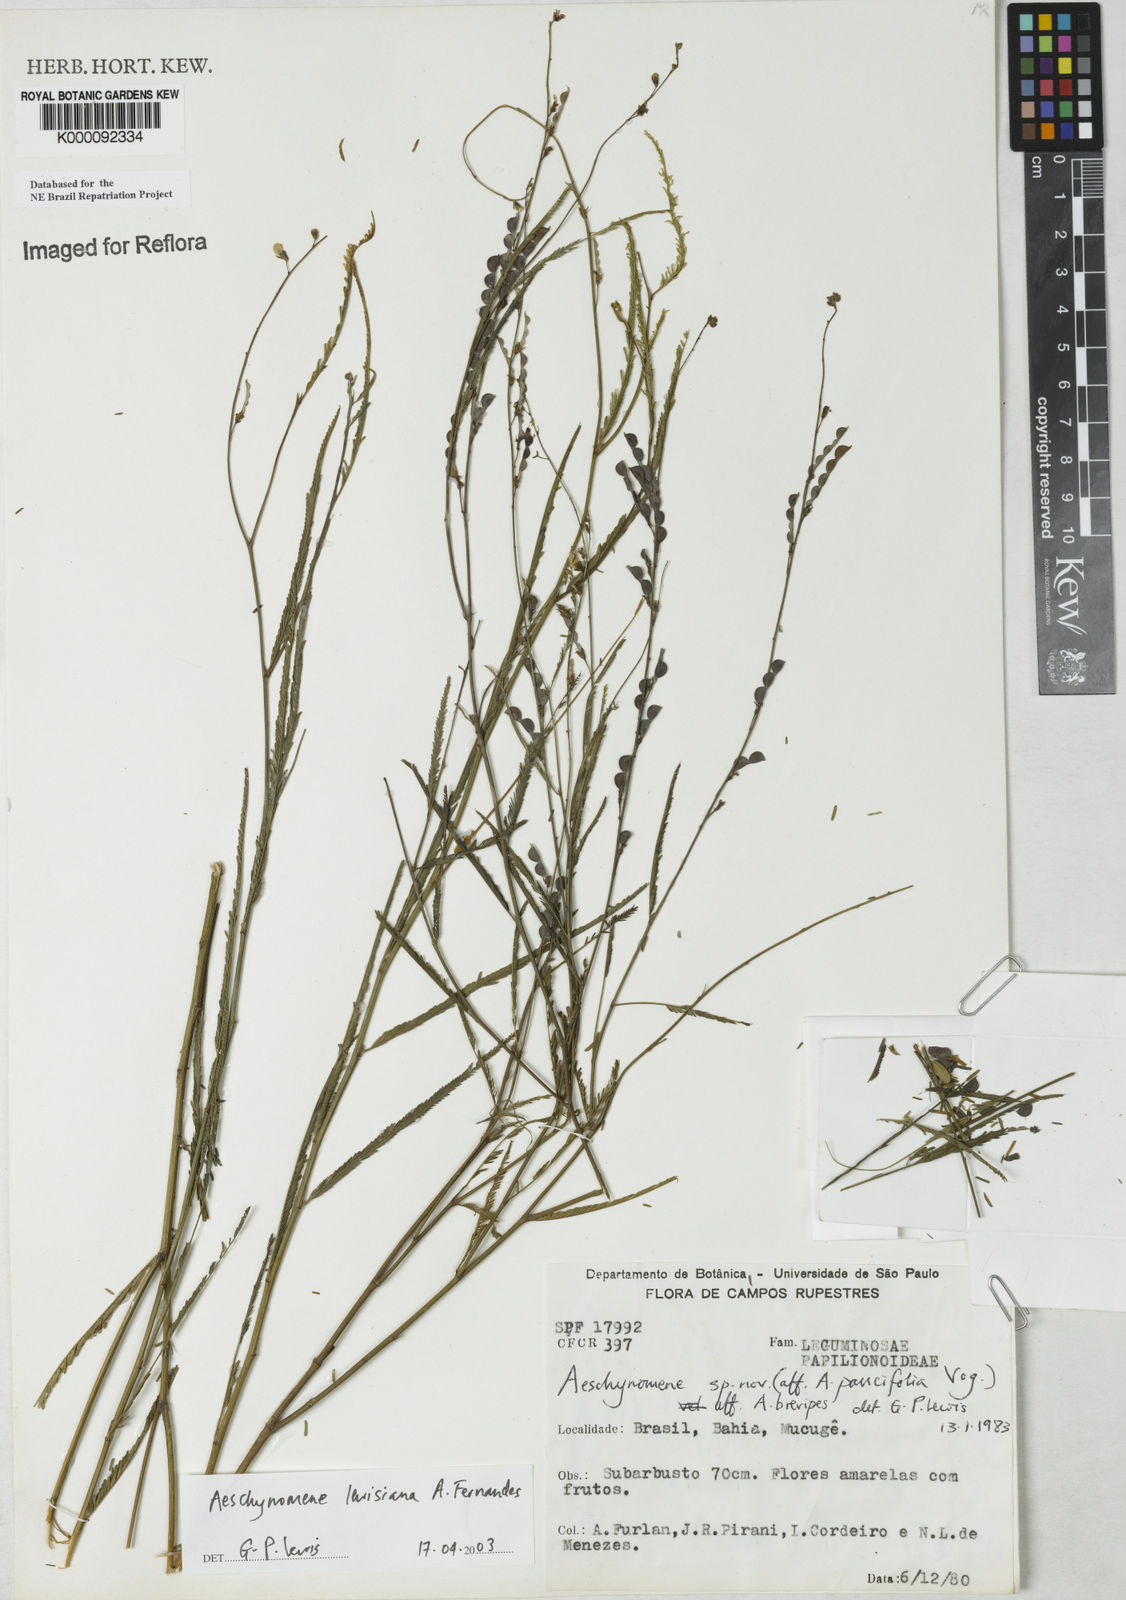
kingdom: Plantae
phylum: Tracheophyta
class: Magnoliopsida
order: Fabales
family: Fabaceae
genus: Ctenodon
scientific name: Ctenodon lewisianus
